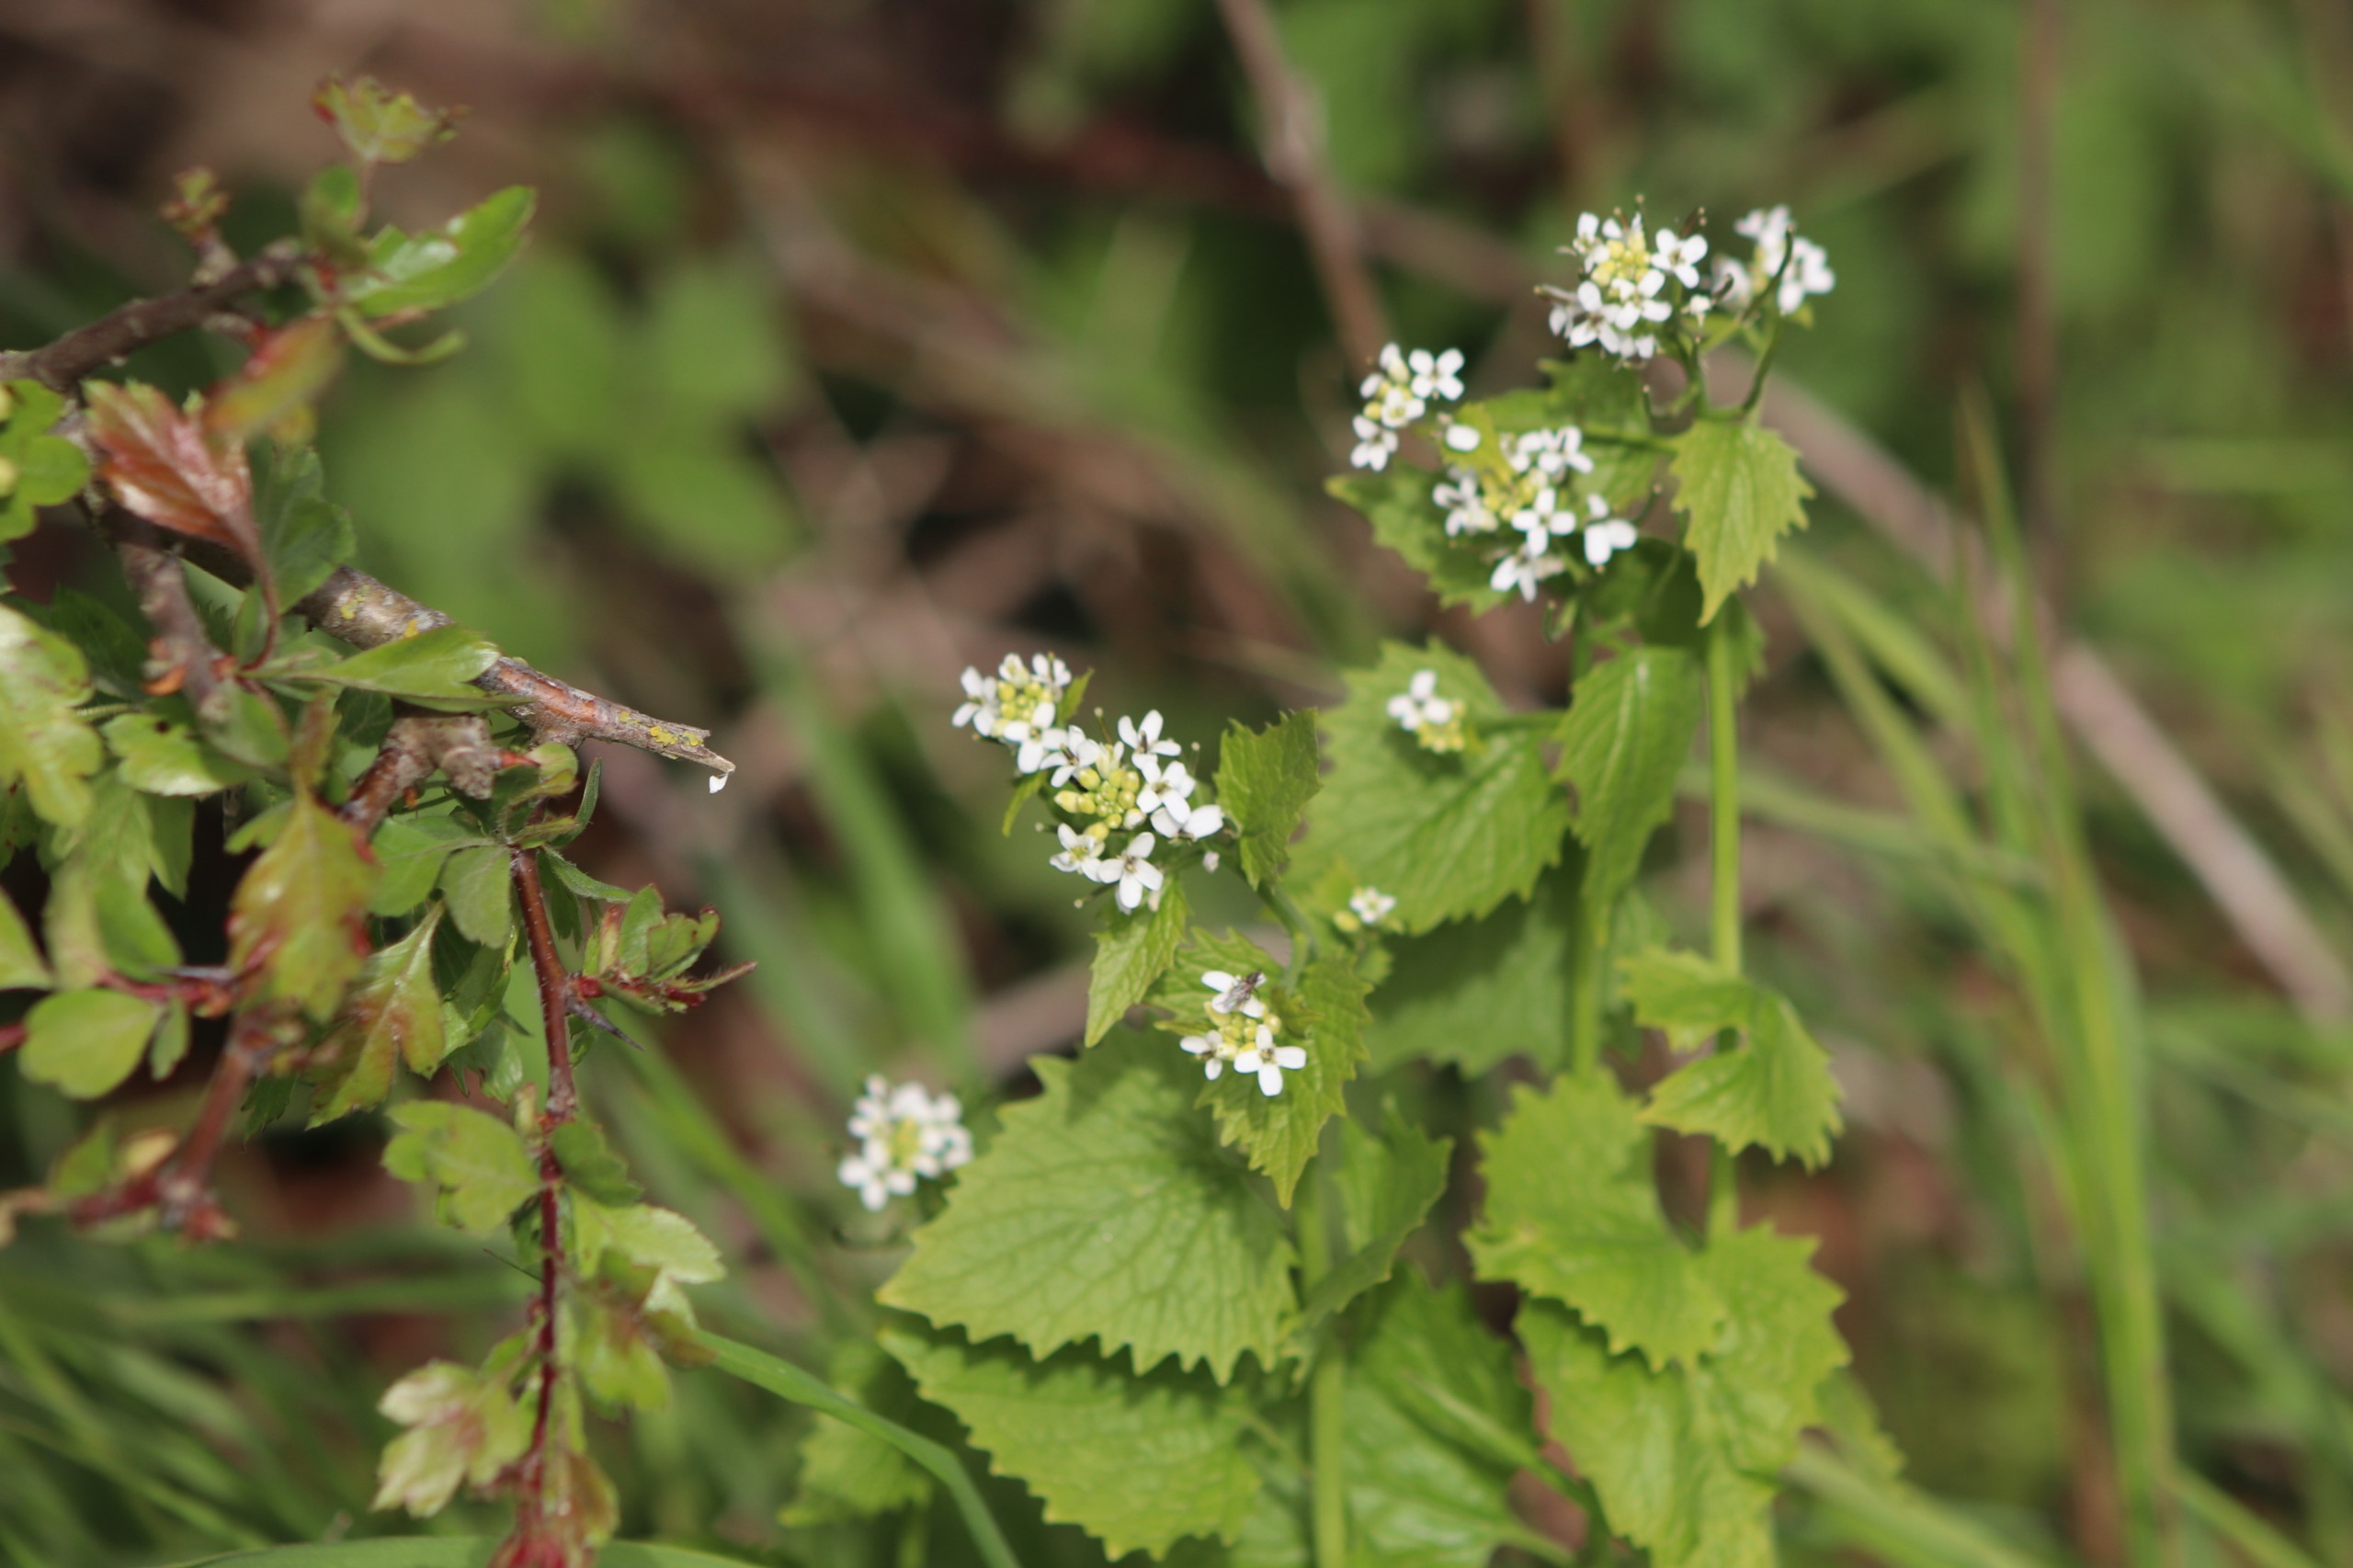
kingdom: Plantae
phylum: Tracheophyta
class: Magnoliopsida
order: Brassicales
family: Brassicaceae
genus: Alliaria
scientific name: Alliaria petiolata
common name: Løgkarse
